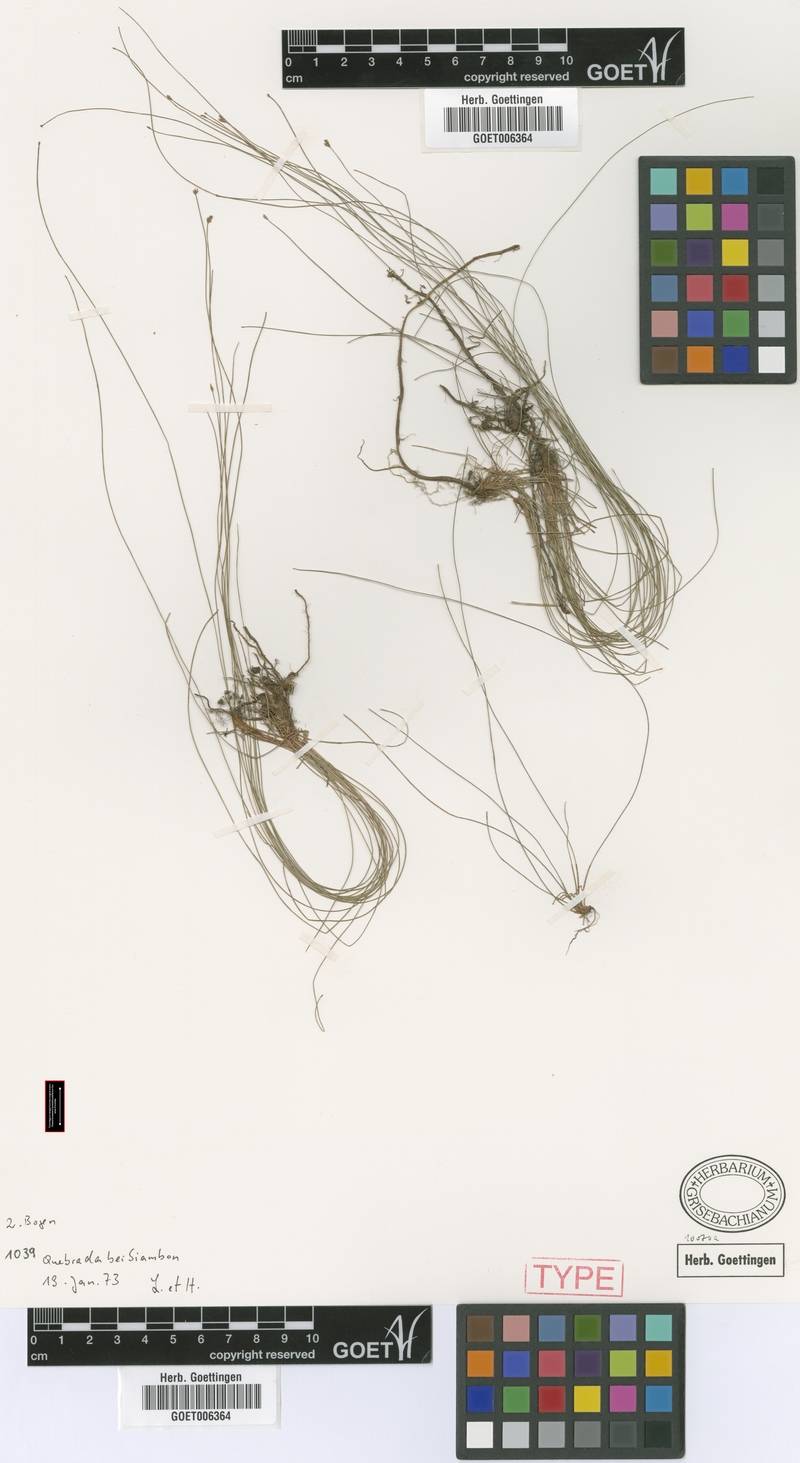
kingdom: Plantae
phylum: Tracheophyta
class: Liliopsida
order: Poales
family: Cyperaceae
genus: Eleocharis
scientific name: Eleocharis crinalis
